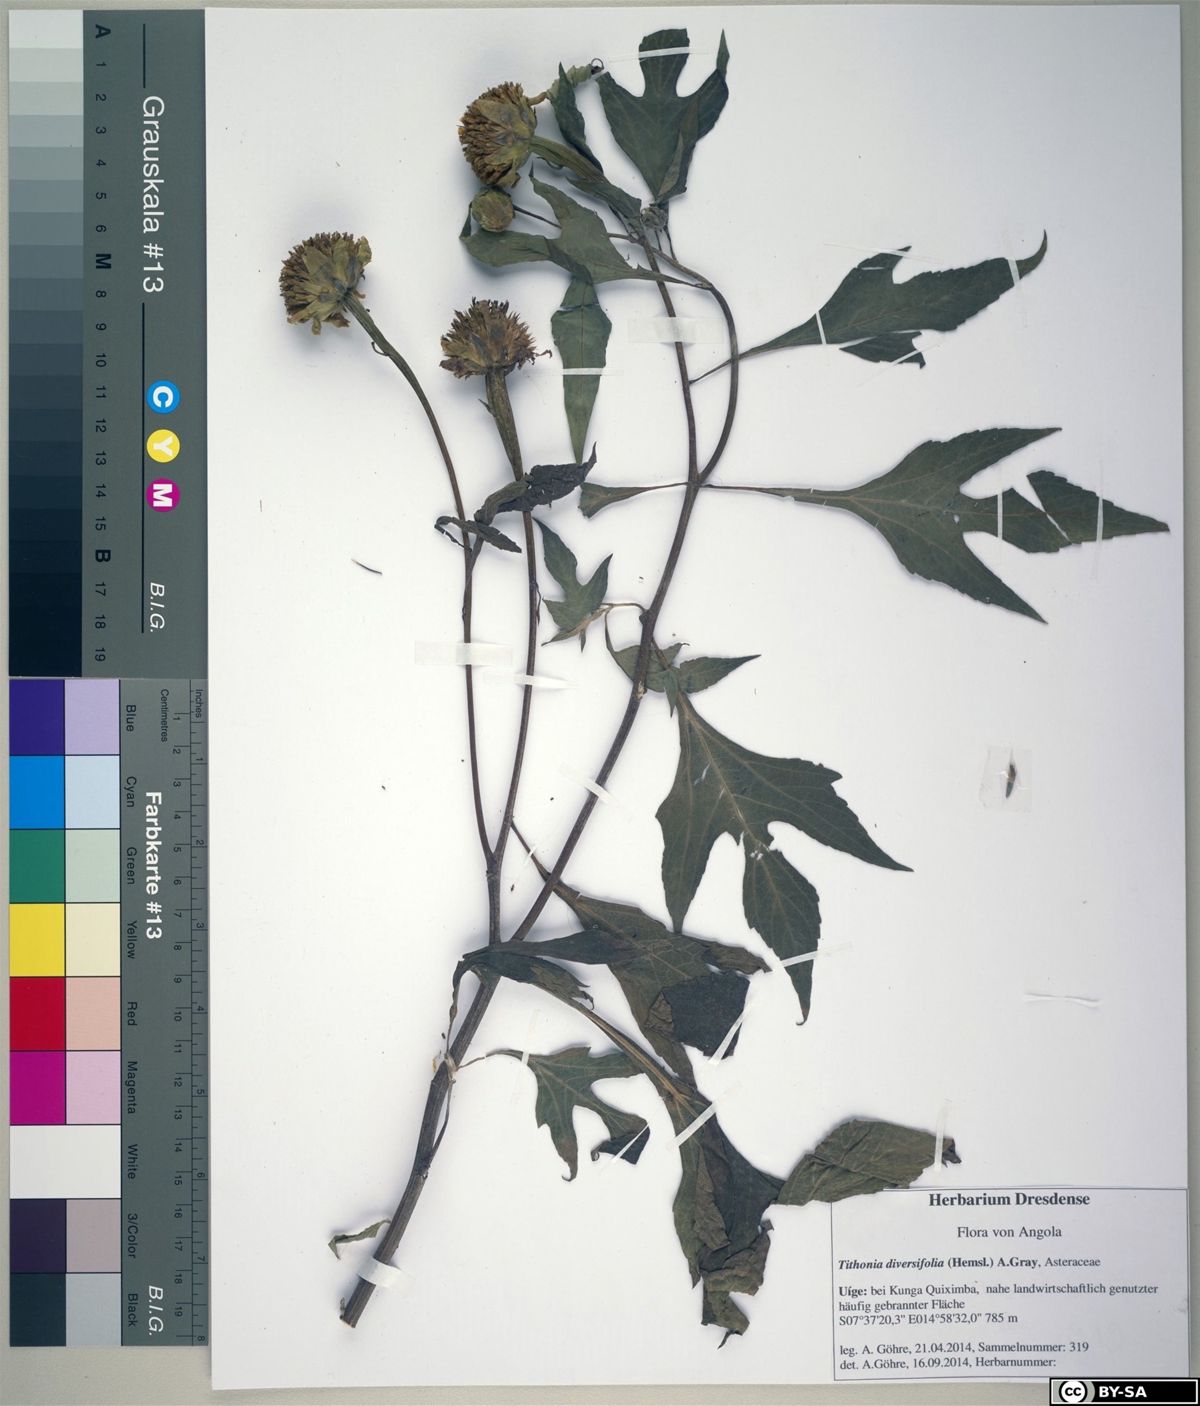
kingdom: Plantae
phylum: Tracheophyta
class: Magnoliopsida
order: Asterales
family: Asteraceae
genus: Tithonia
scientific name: Tithonia diversifolia
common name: Tree marigold
